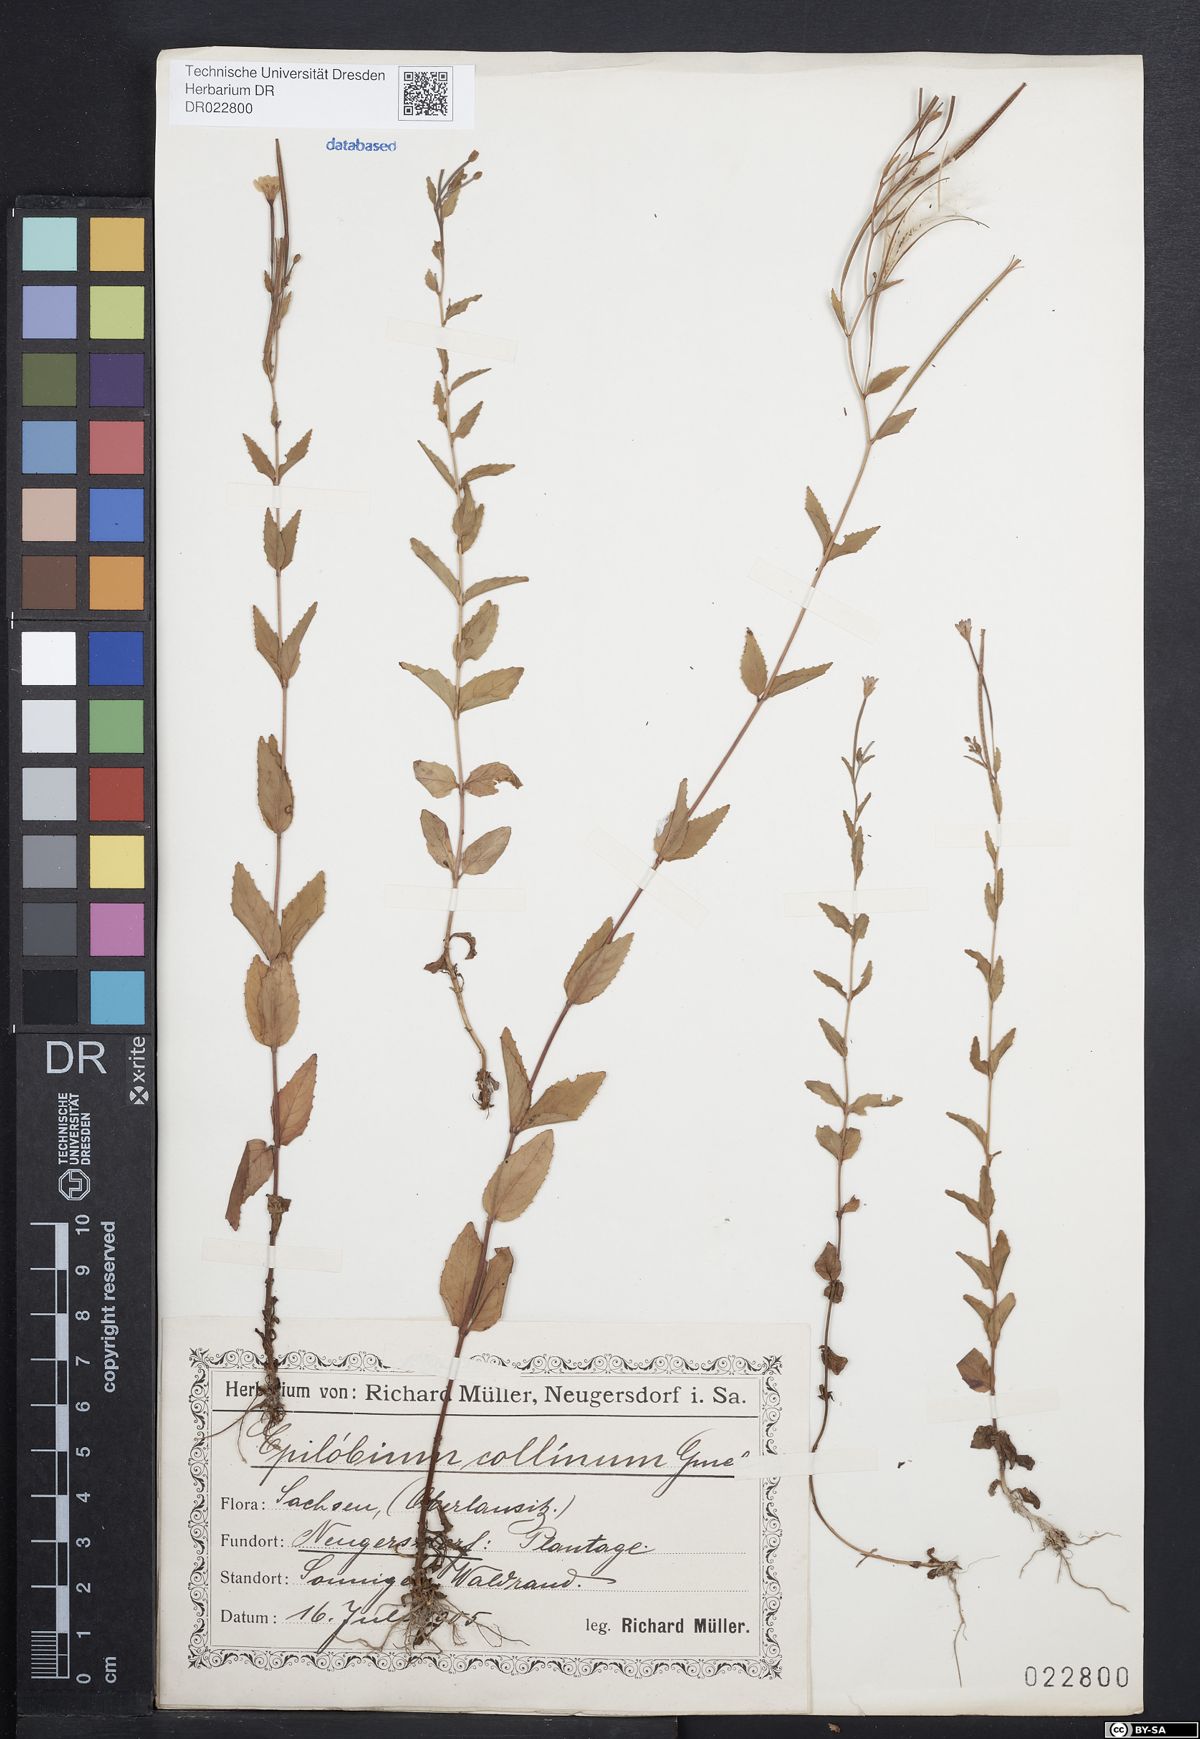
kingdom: Plantae
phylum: Tracheophyta
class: Magnoliopsida
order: Myrtales
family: Onagraceae
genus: Epilobium
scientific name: Epilobium collinum
